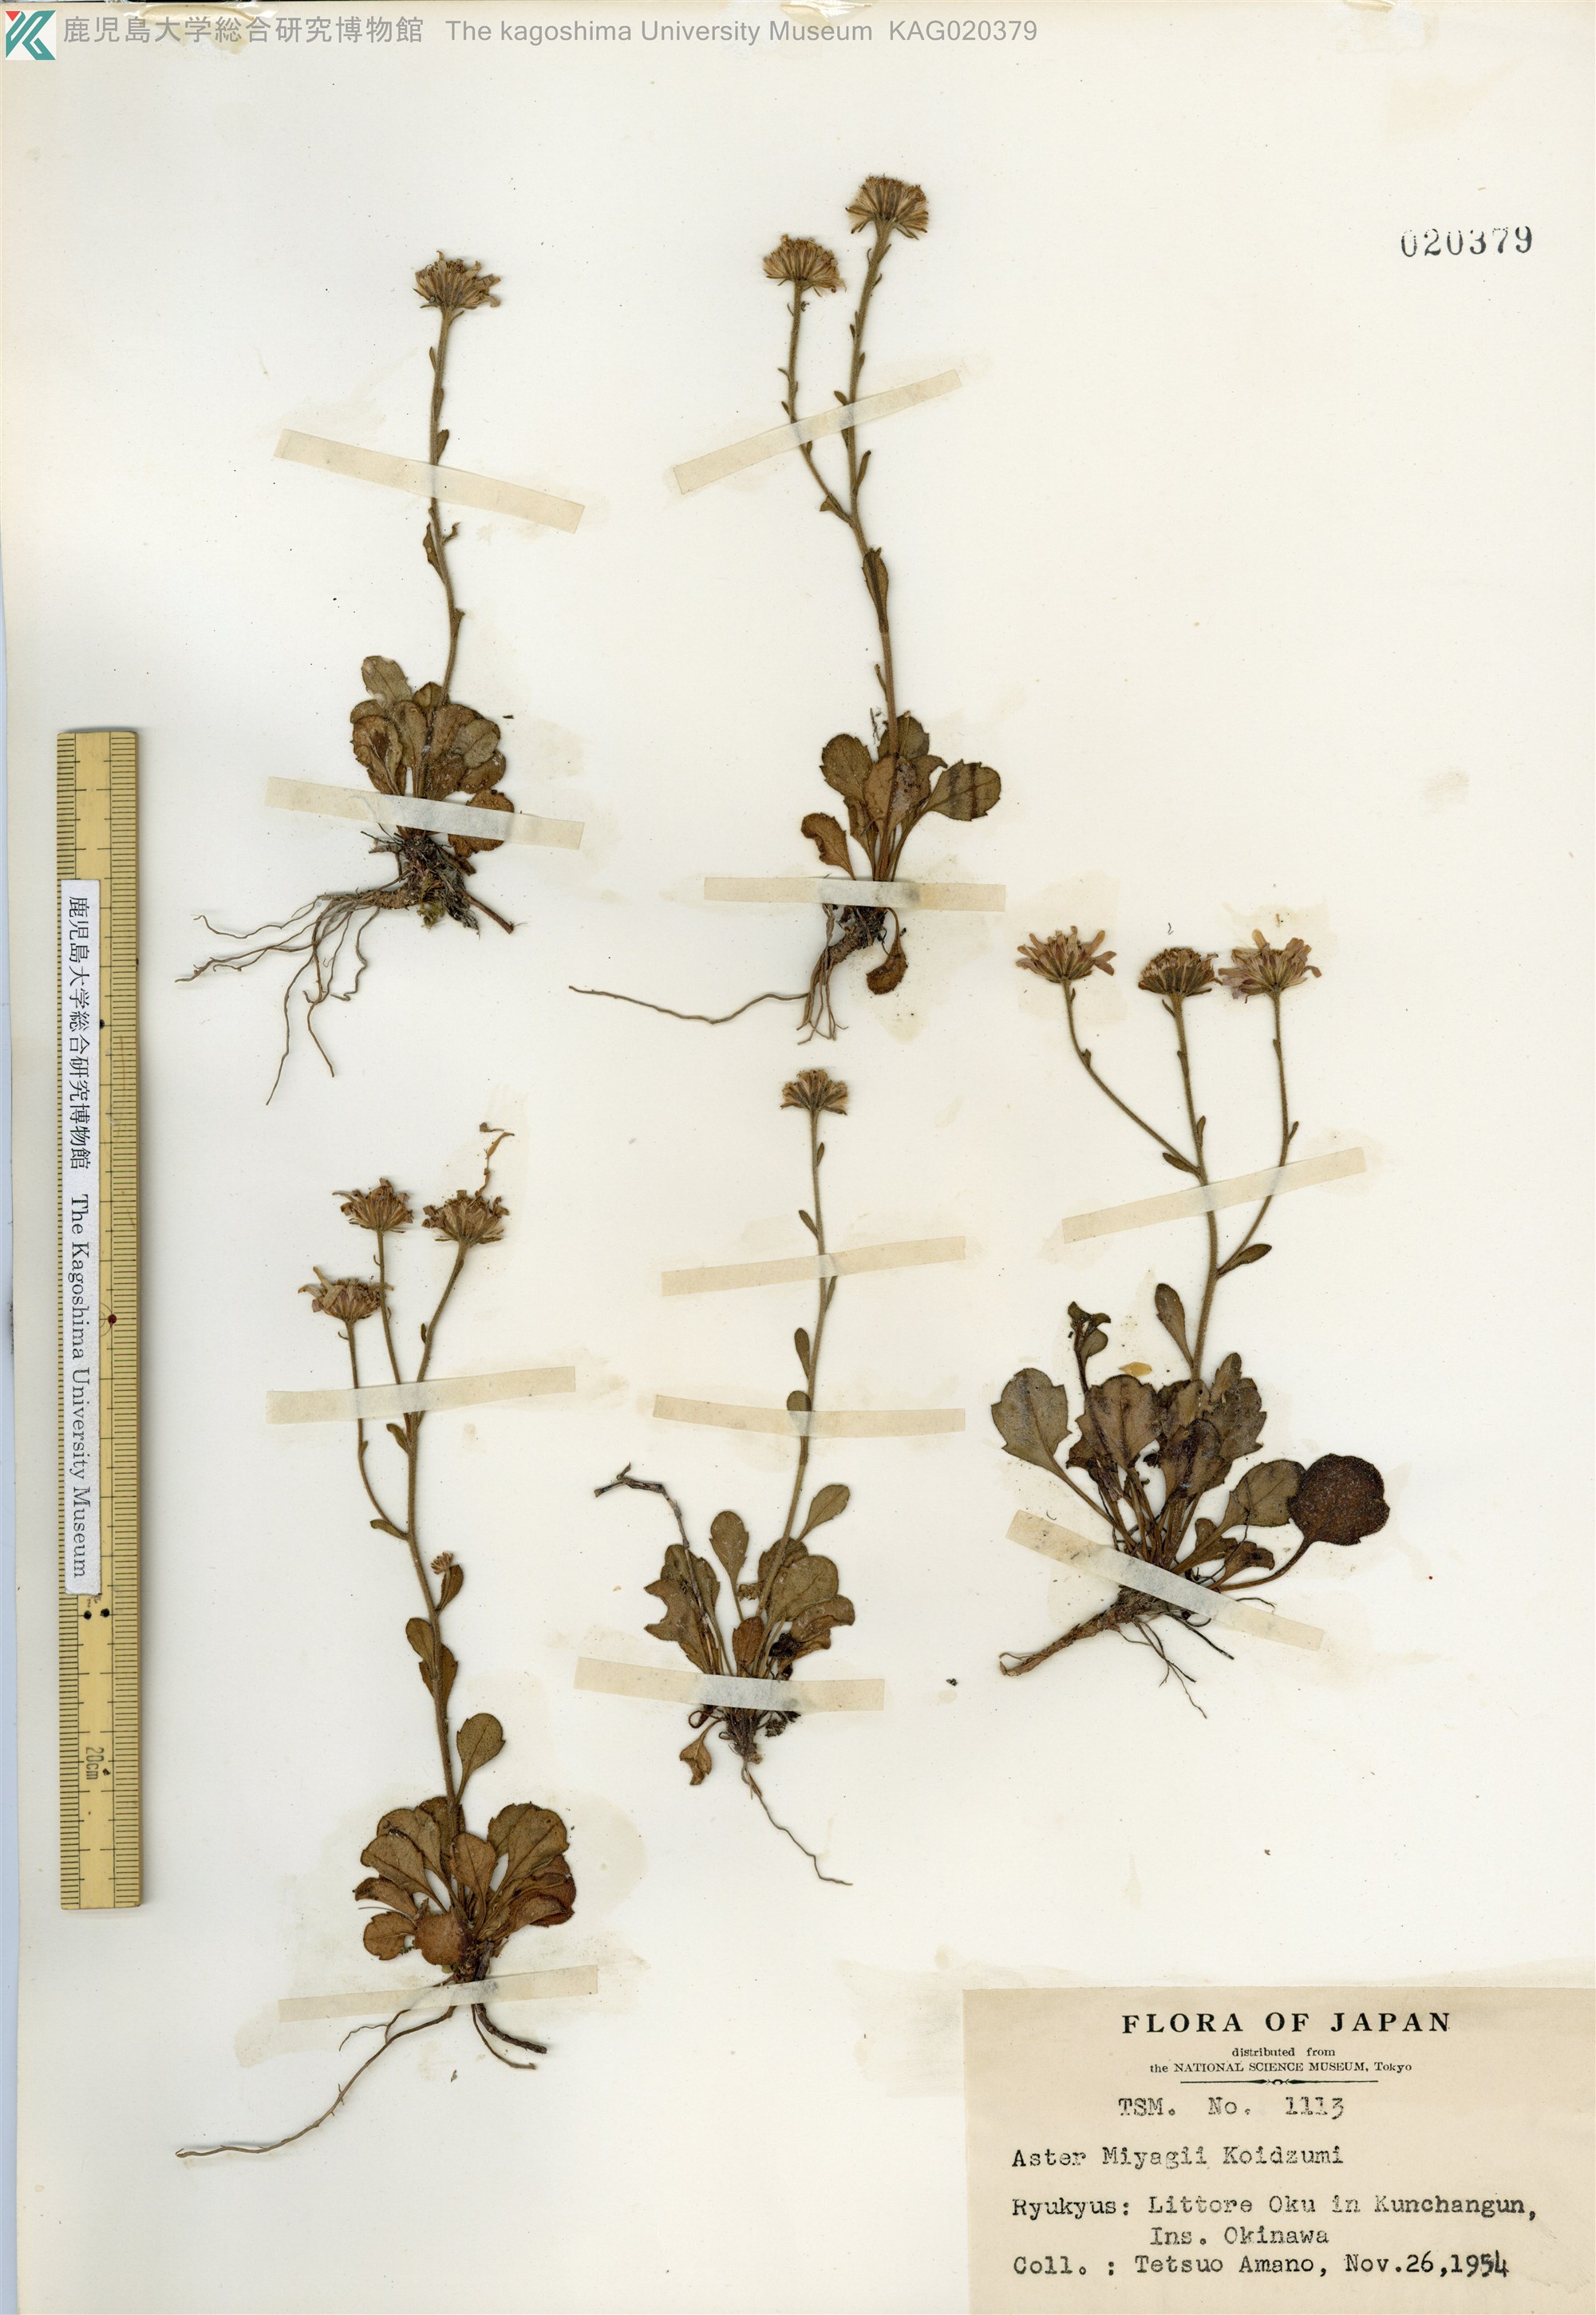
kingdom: Plantae
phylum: Tracheophyta
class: Magnoliopsida
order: Asterales
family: Asteraceae
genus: Aster
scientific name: Aster miyagii
